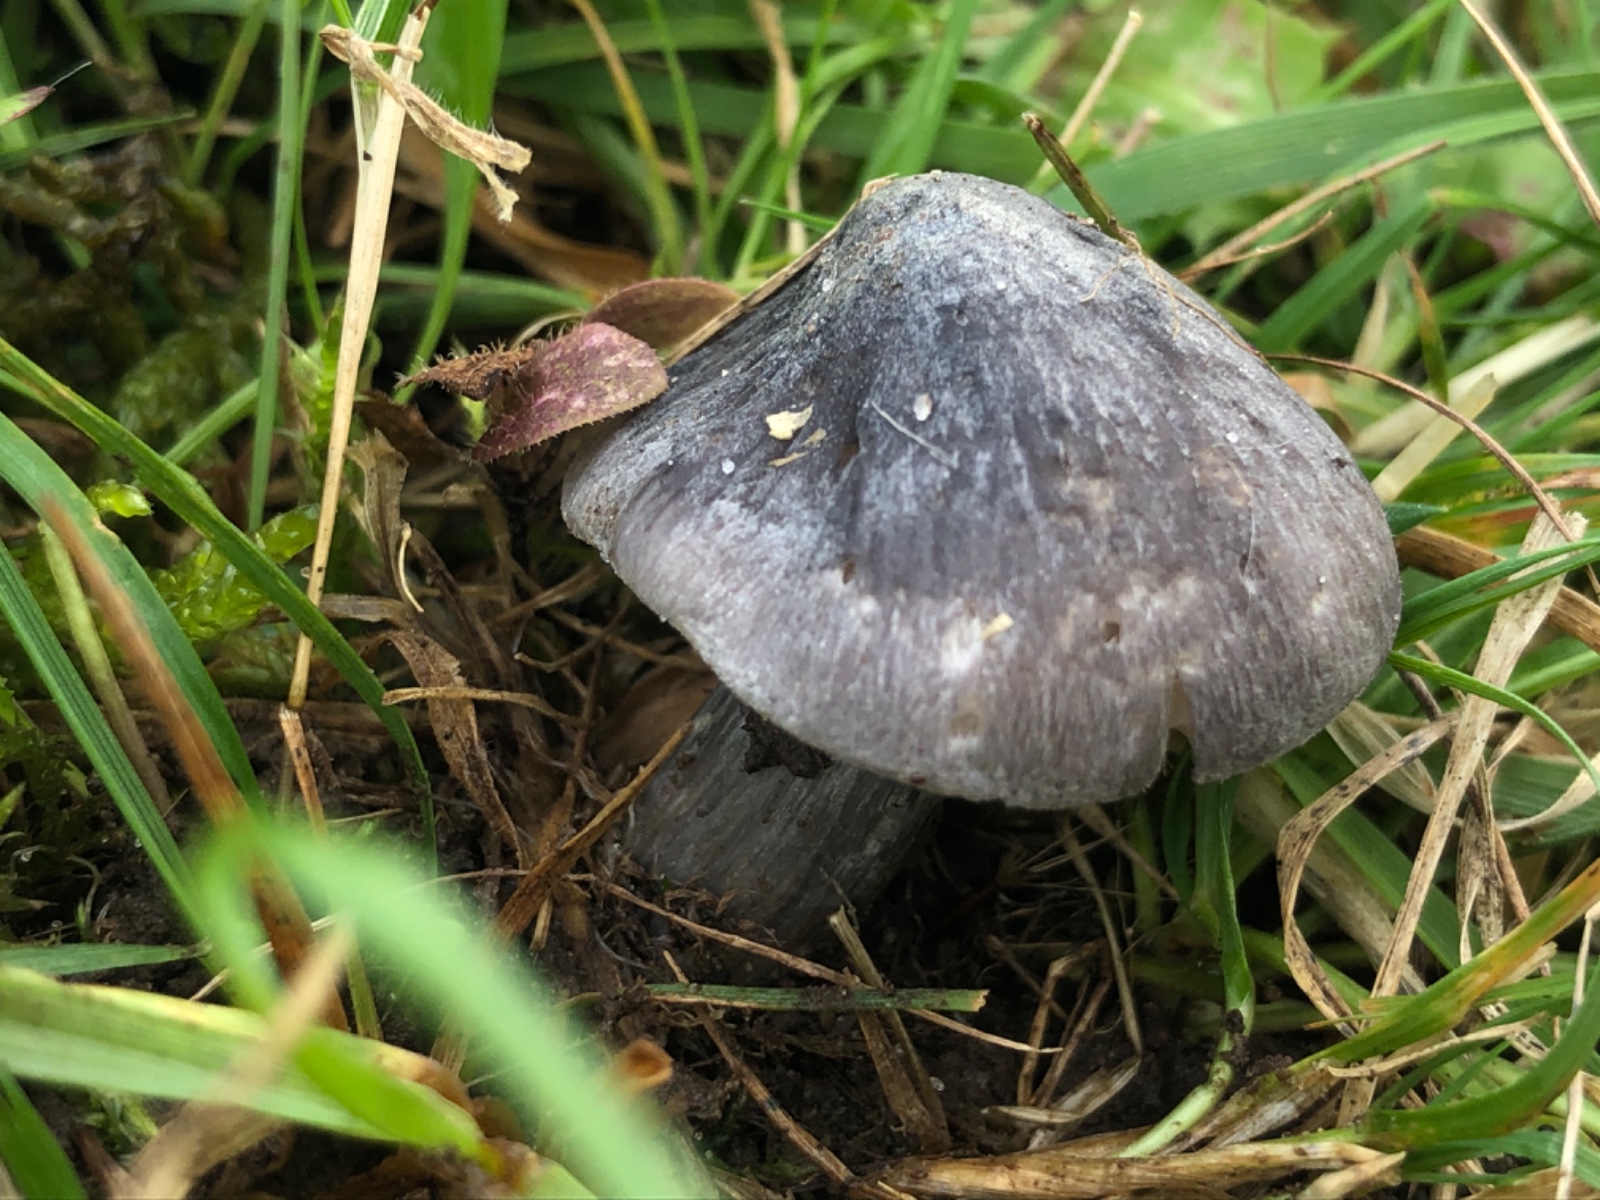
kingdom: Fungi
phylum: Basidiomycota
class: Agaricomycetes
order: Agaricales
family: Entolomataceae
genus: Entoloma
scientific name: Entoloma madidum
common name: indigo-rødblad
